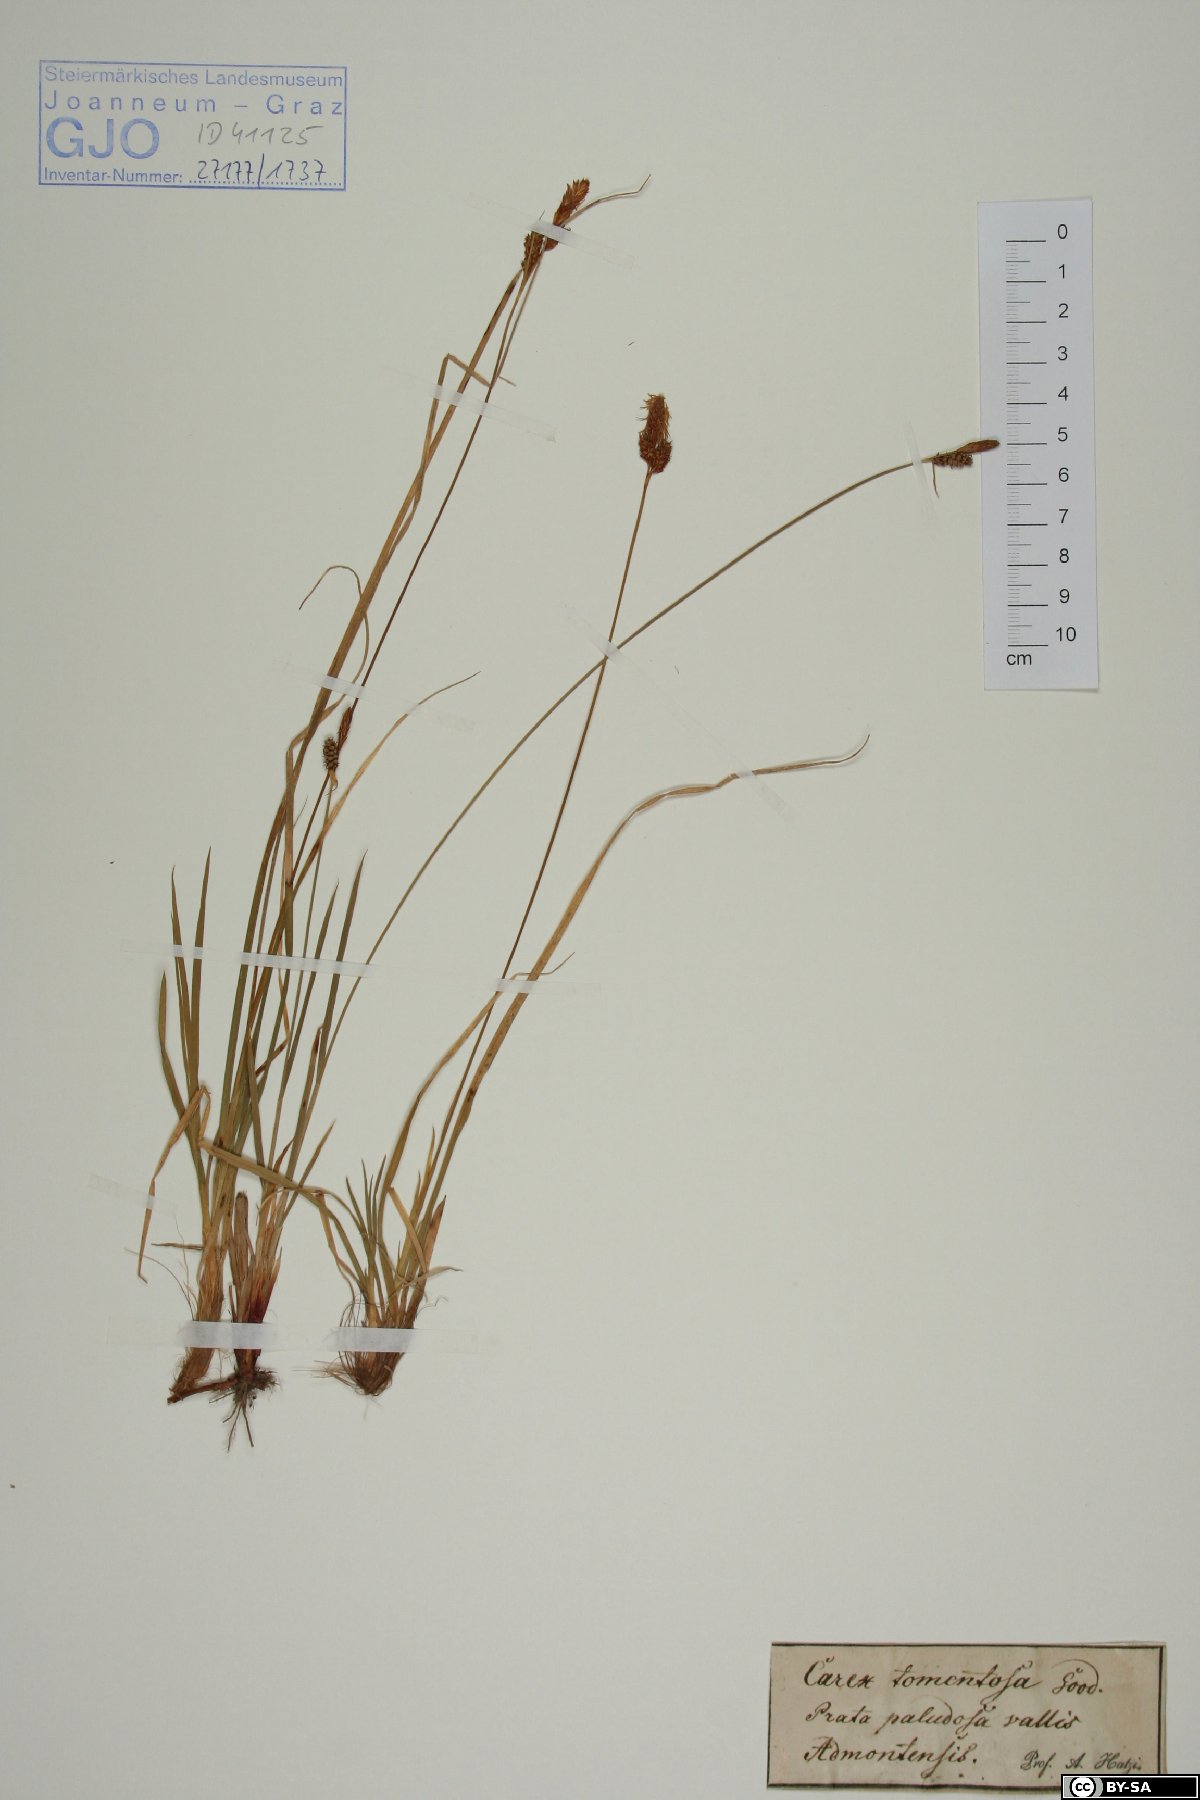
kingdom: Plantae
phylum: Tracheophyta
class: Liliopsida
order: Poales
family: Cyperaceae
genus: Carex
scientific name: Carex tomentosa
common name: Downy-fruited sedge
